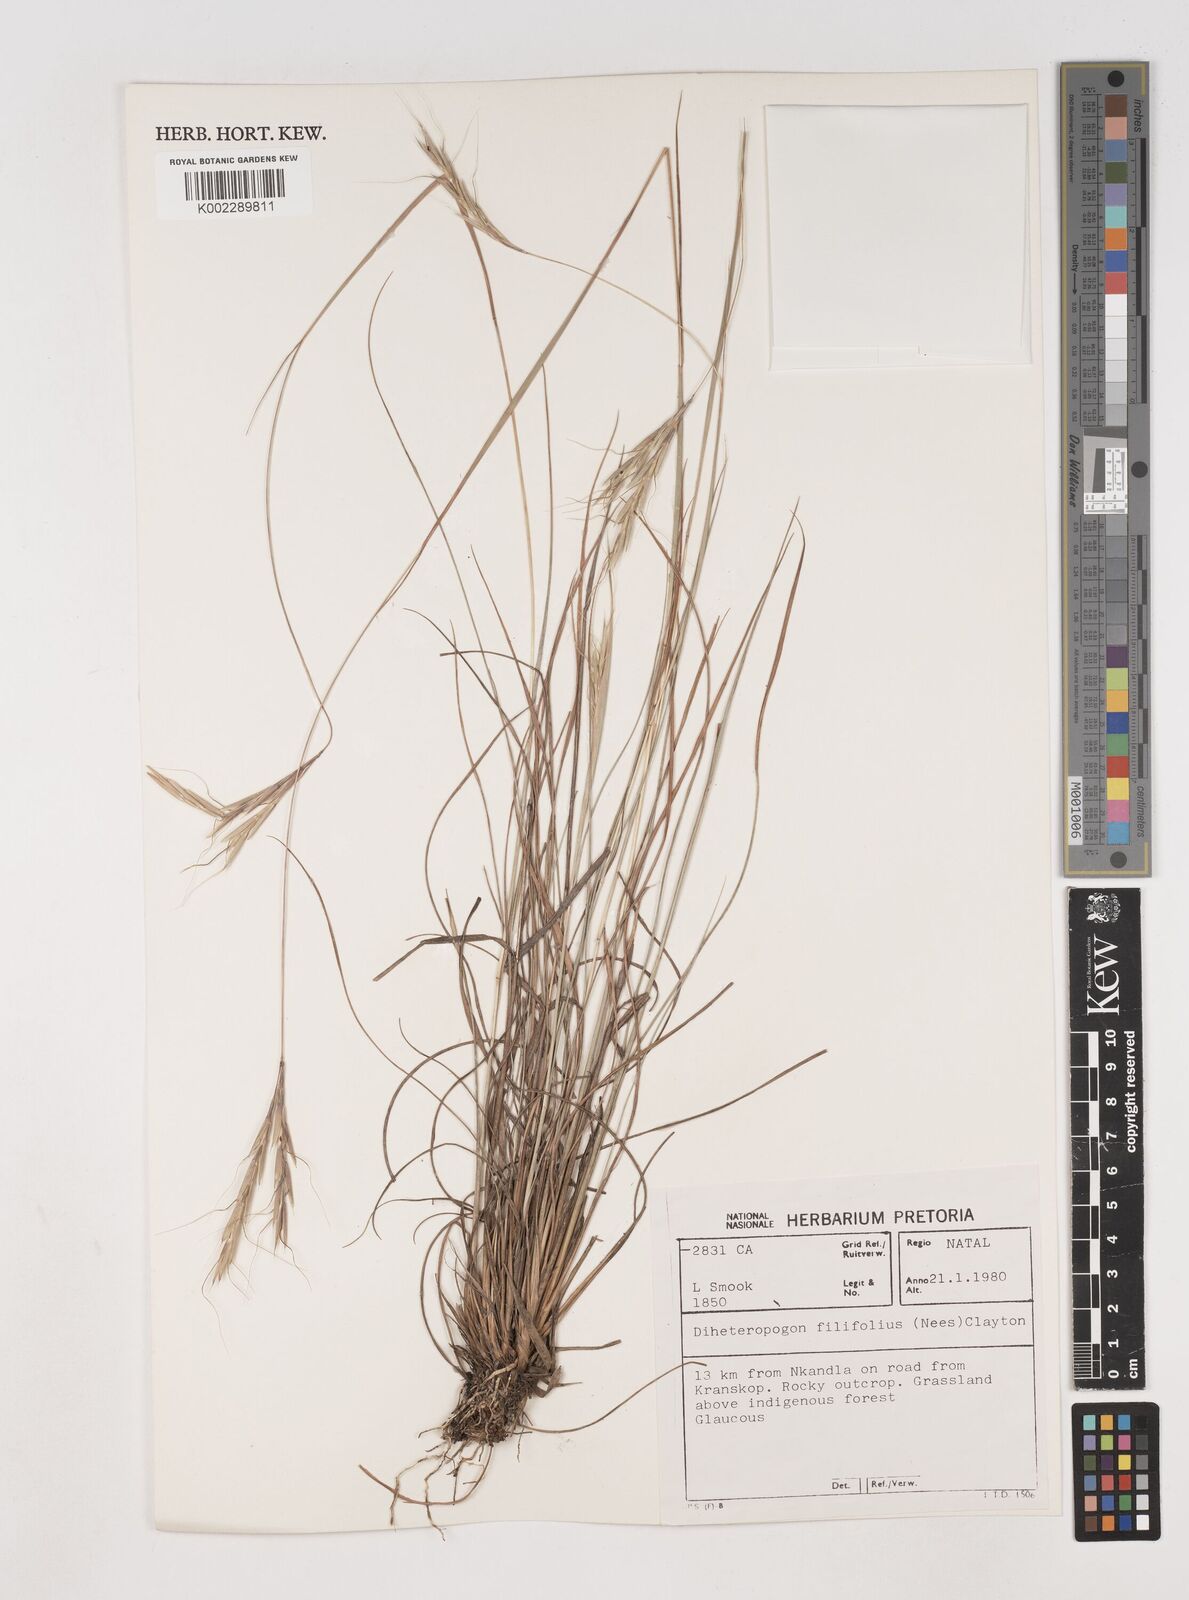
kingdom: Plantae
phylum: Tracheophyta
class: Liliopsida
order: Poales
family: Poaceae
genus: Diheteropogon
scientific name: Diheteropogon filifolius
